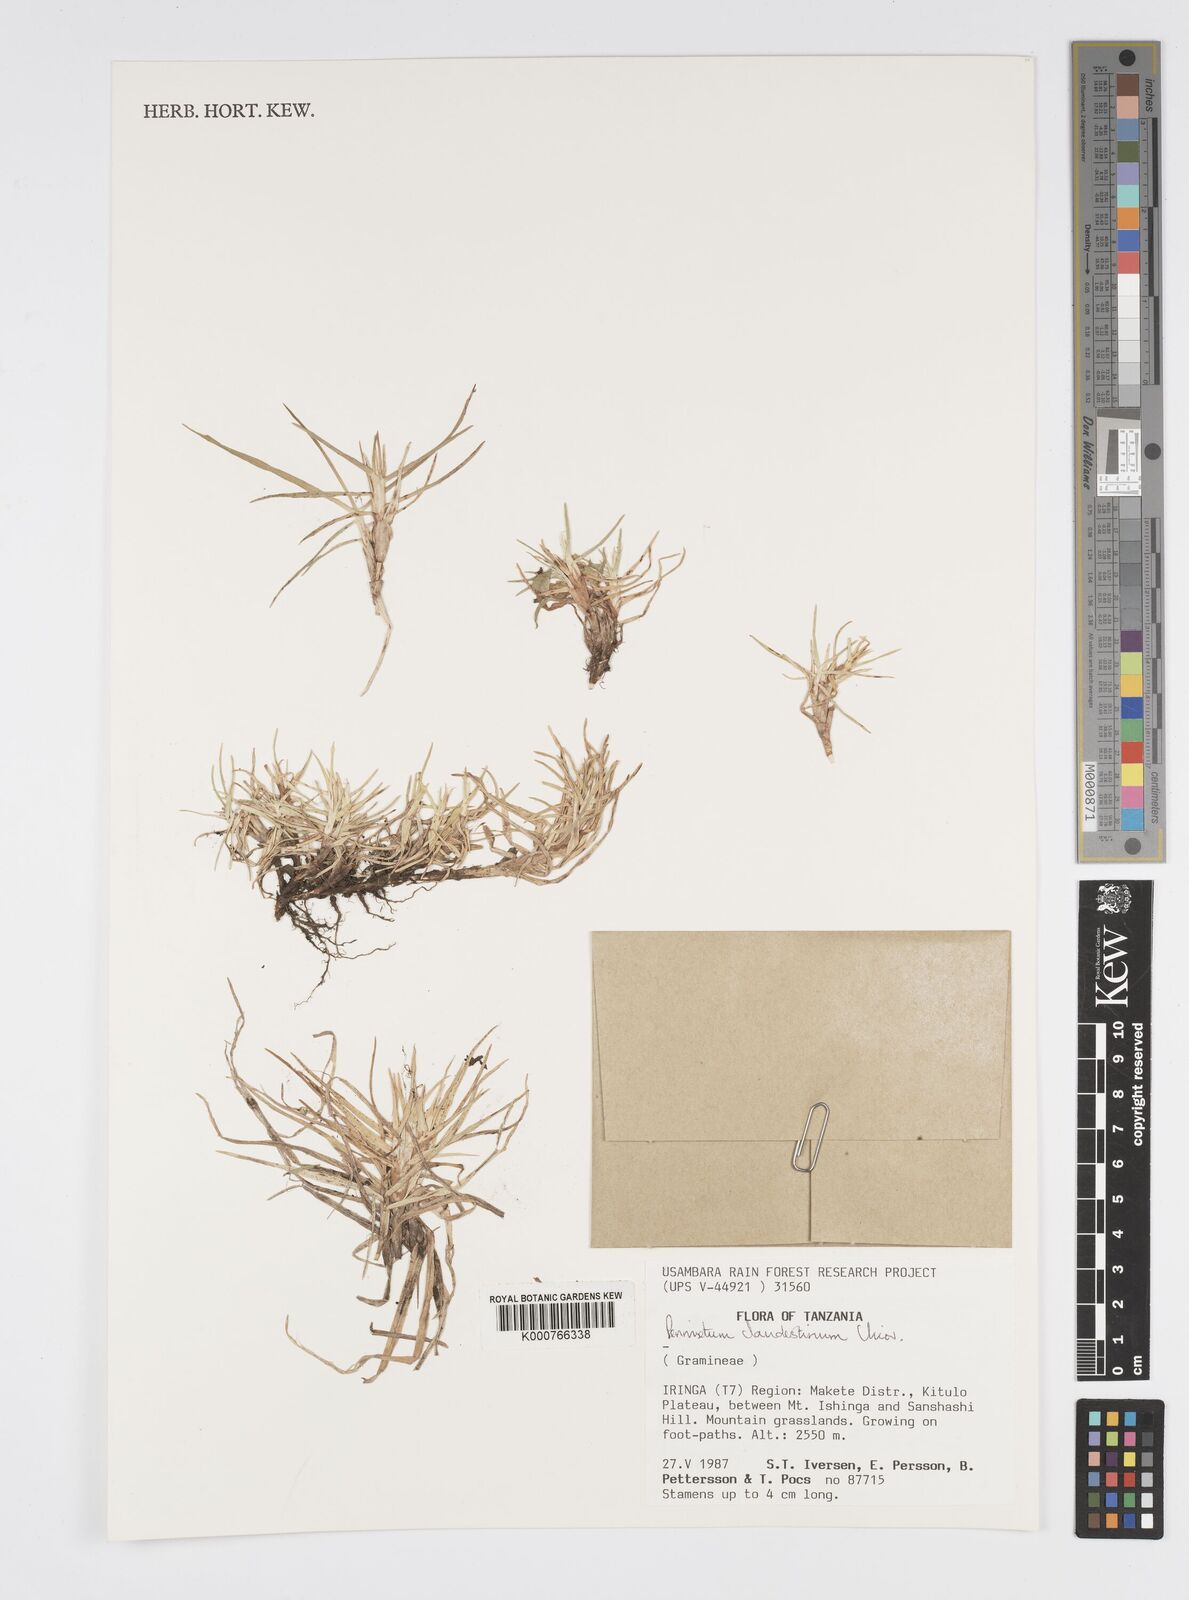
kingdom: Plantae
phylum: Tracheophyta
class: Liliopsida
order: Poales
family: Poaceae
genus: Cenchrus
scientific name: Cenchrus clandestinus
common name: Kikuyugrass
